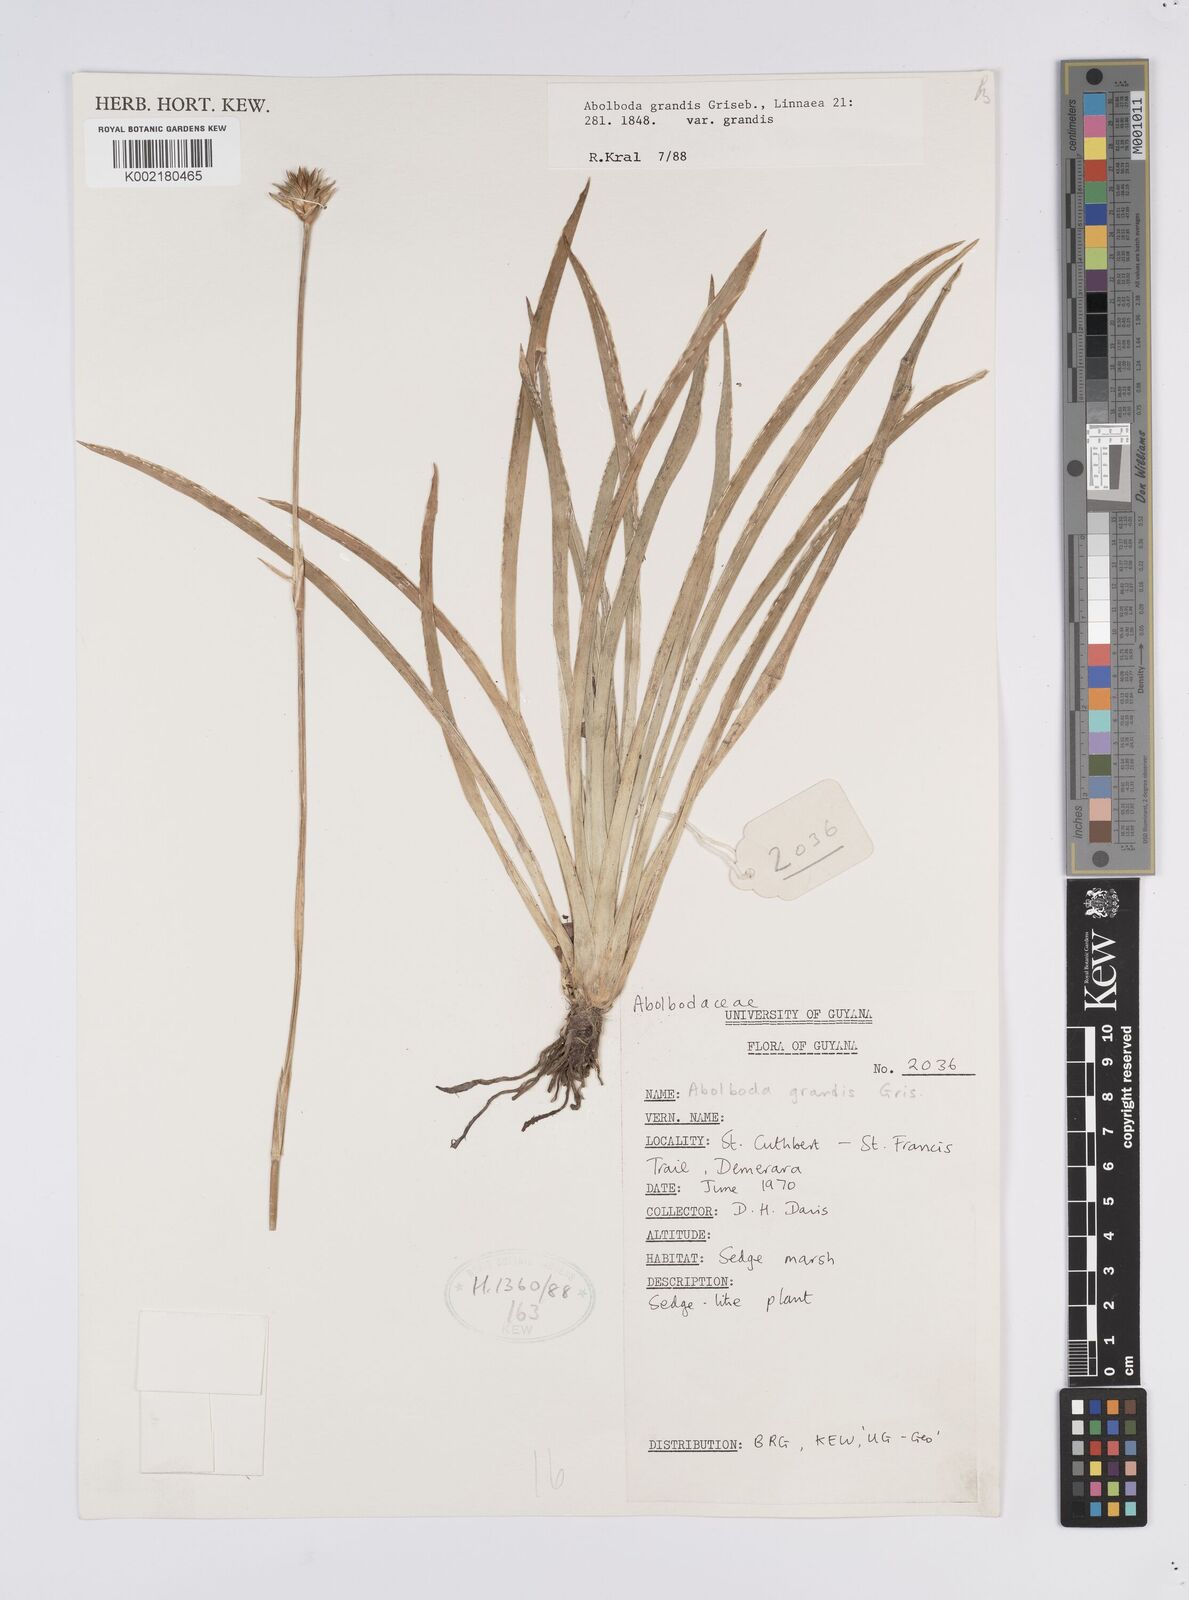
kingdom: Plantae
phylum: Tracheophyta
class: Liliopsida
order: Poales
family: Xyridaceae
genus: Abolboda
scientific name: Abolboda grandis
